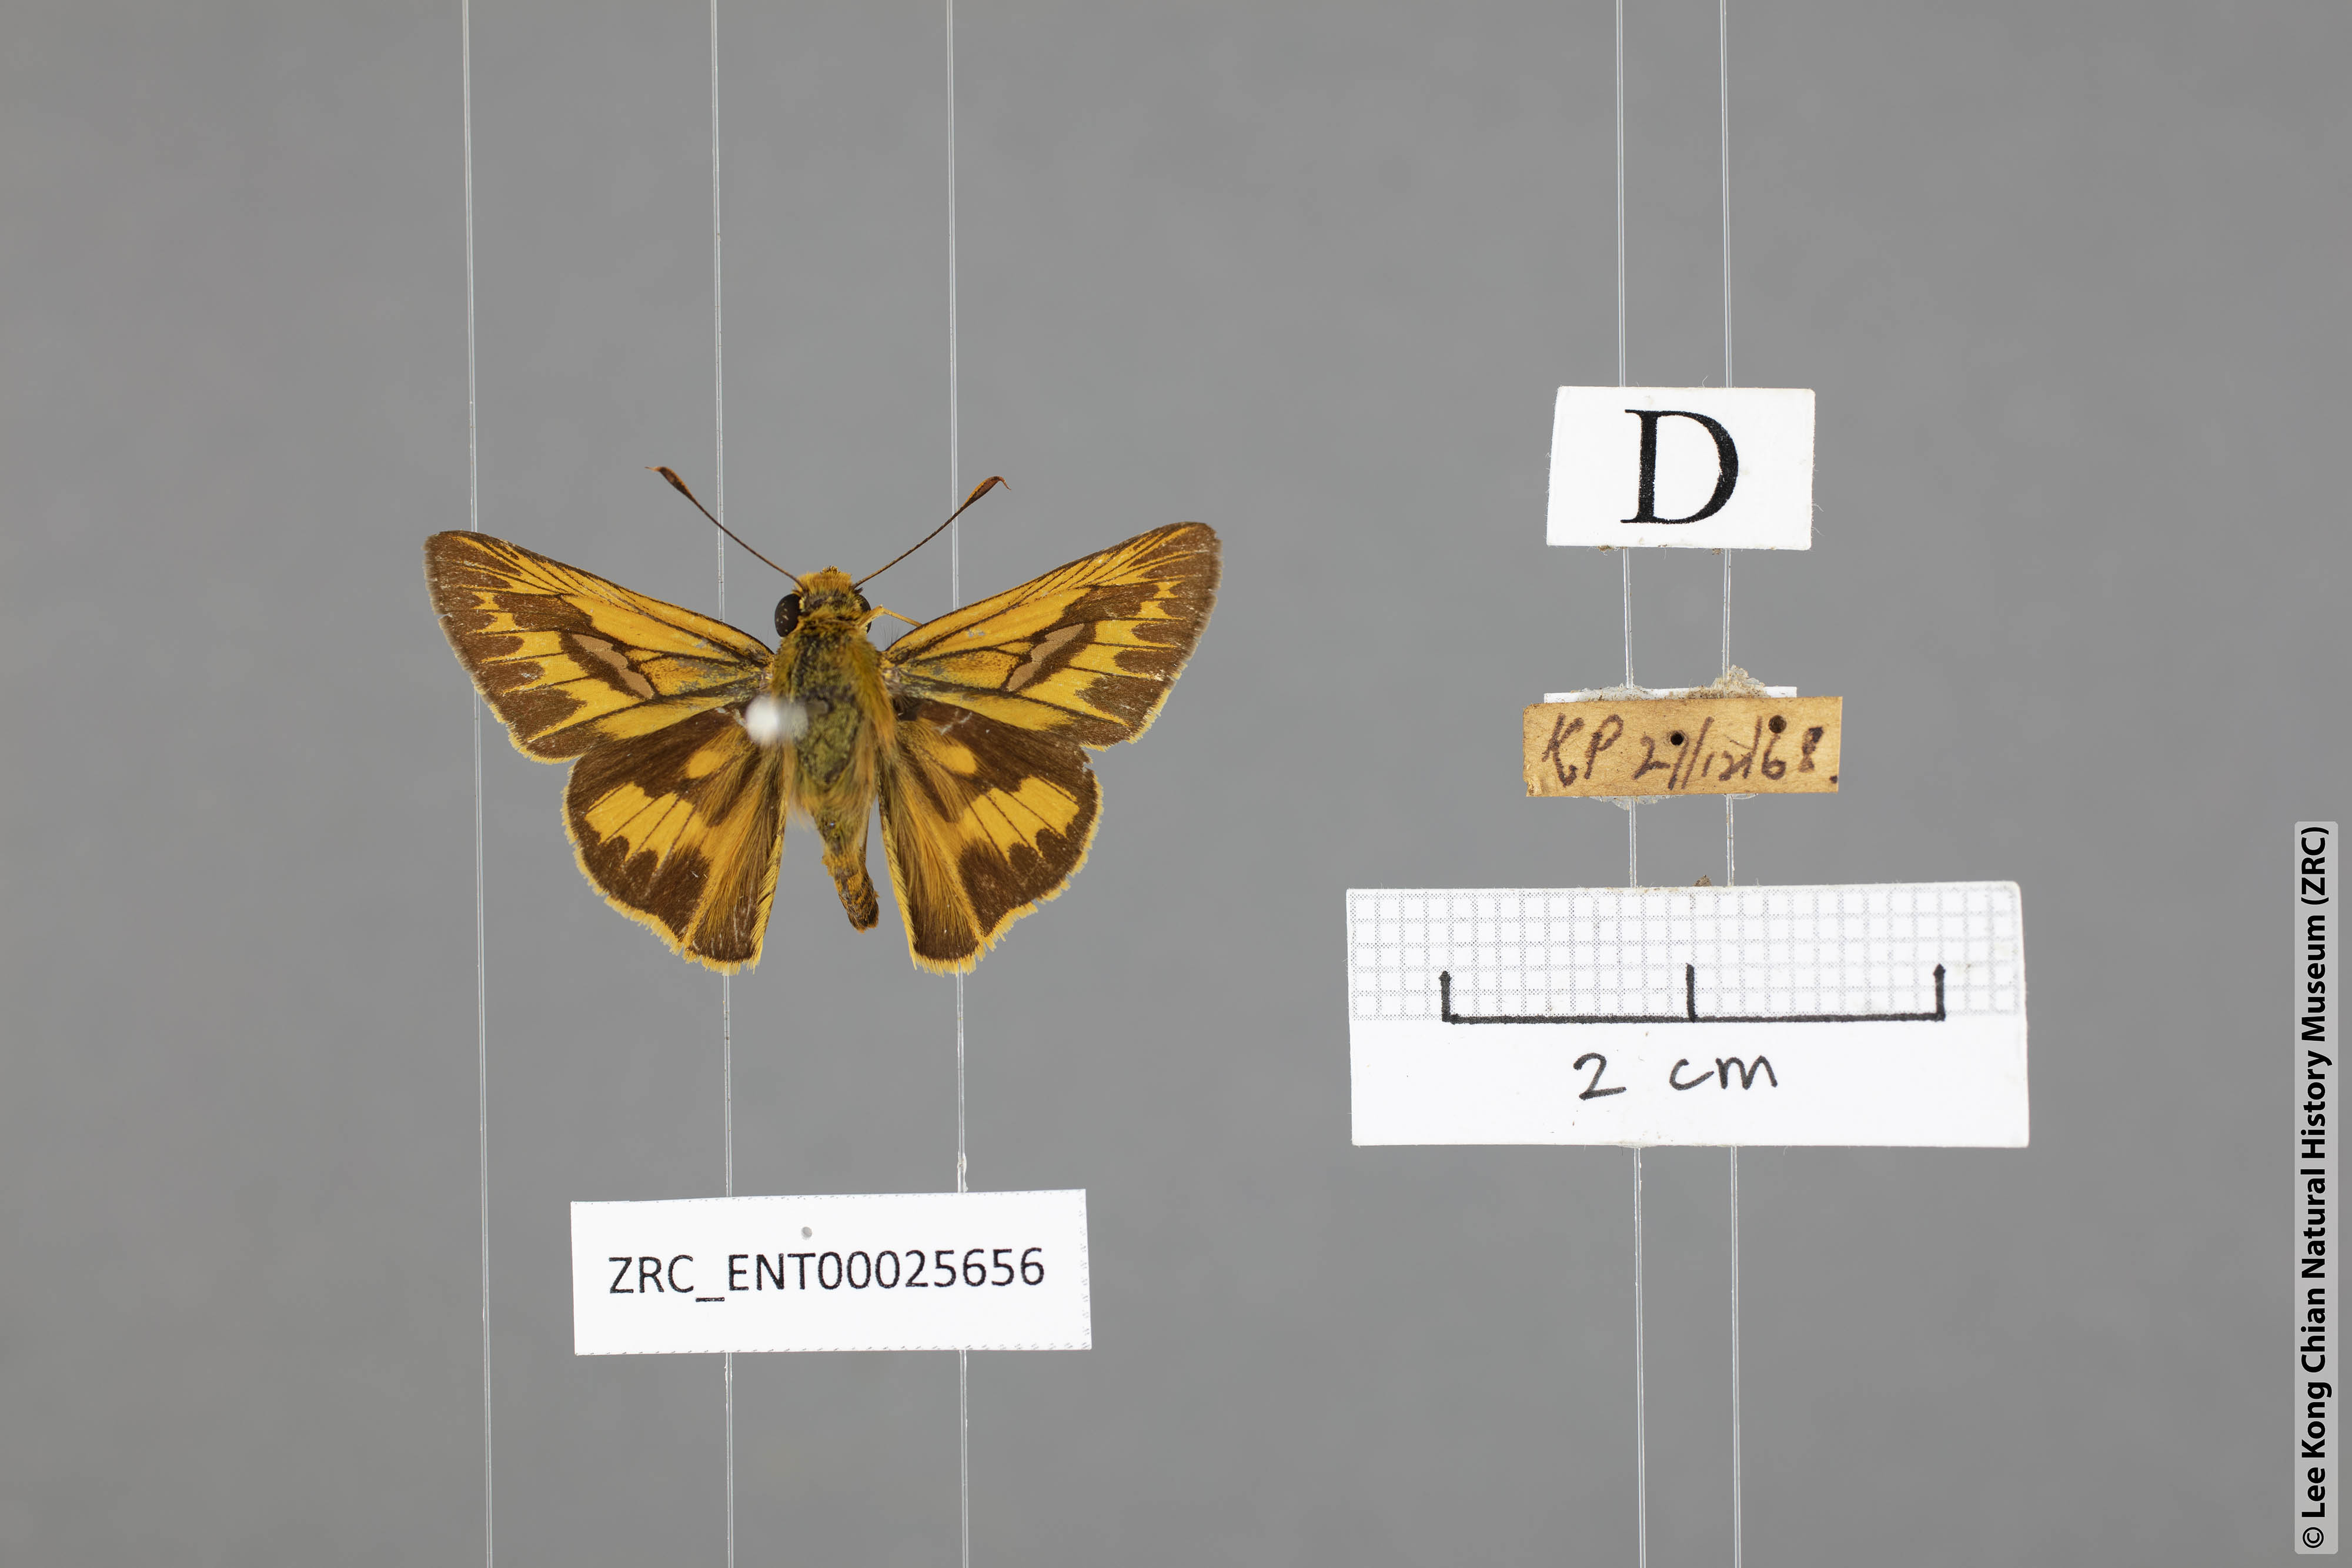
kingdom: Animalia
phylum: Arthropoda
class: Insecta
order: Lepidoptera
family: Hesperiidae
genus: Telicota
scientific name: Telicota colon
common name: Pale palm dart
